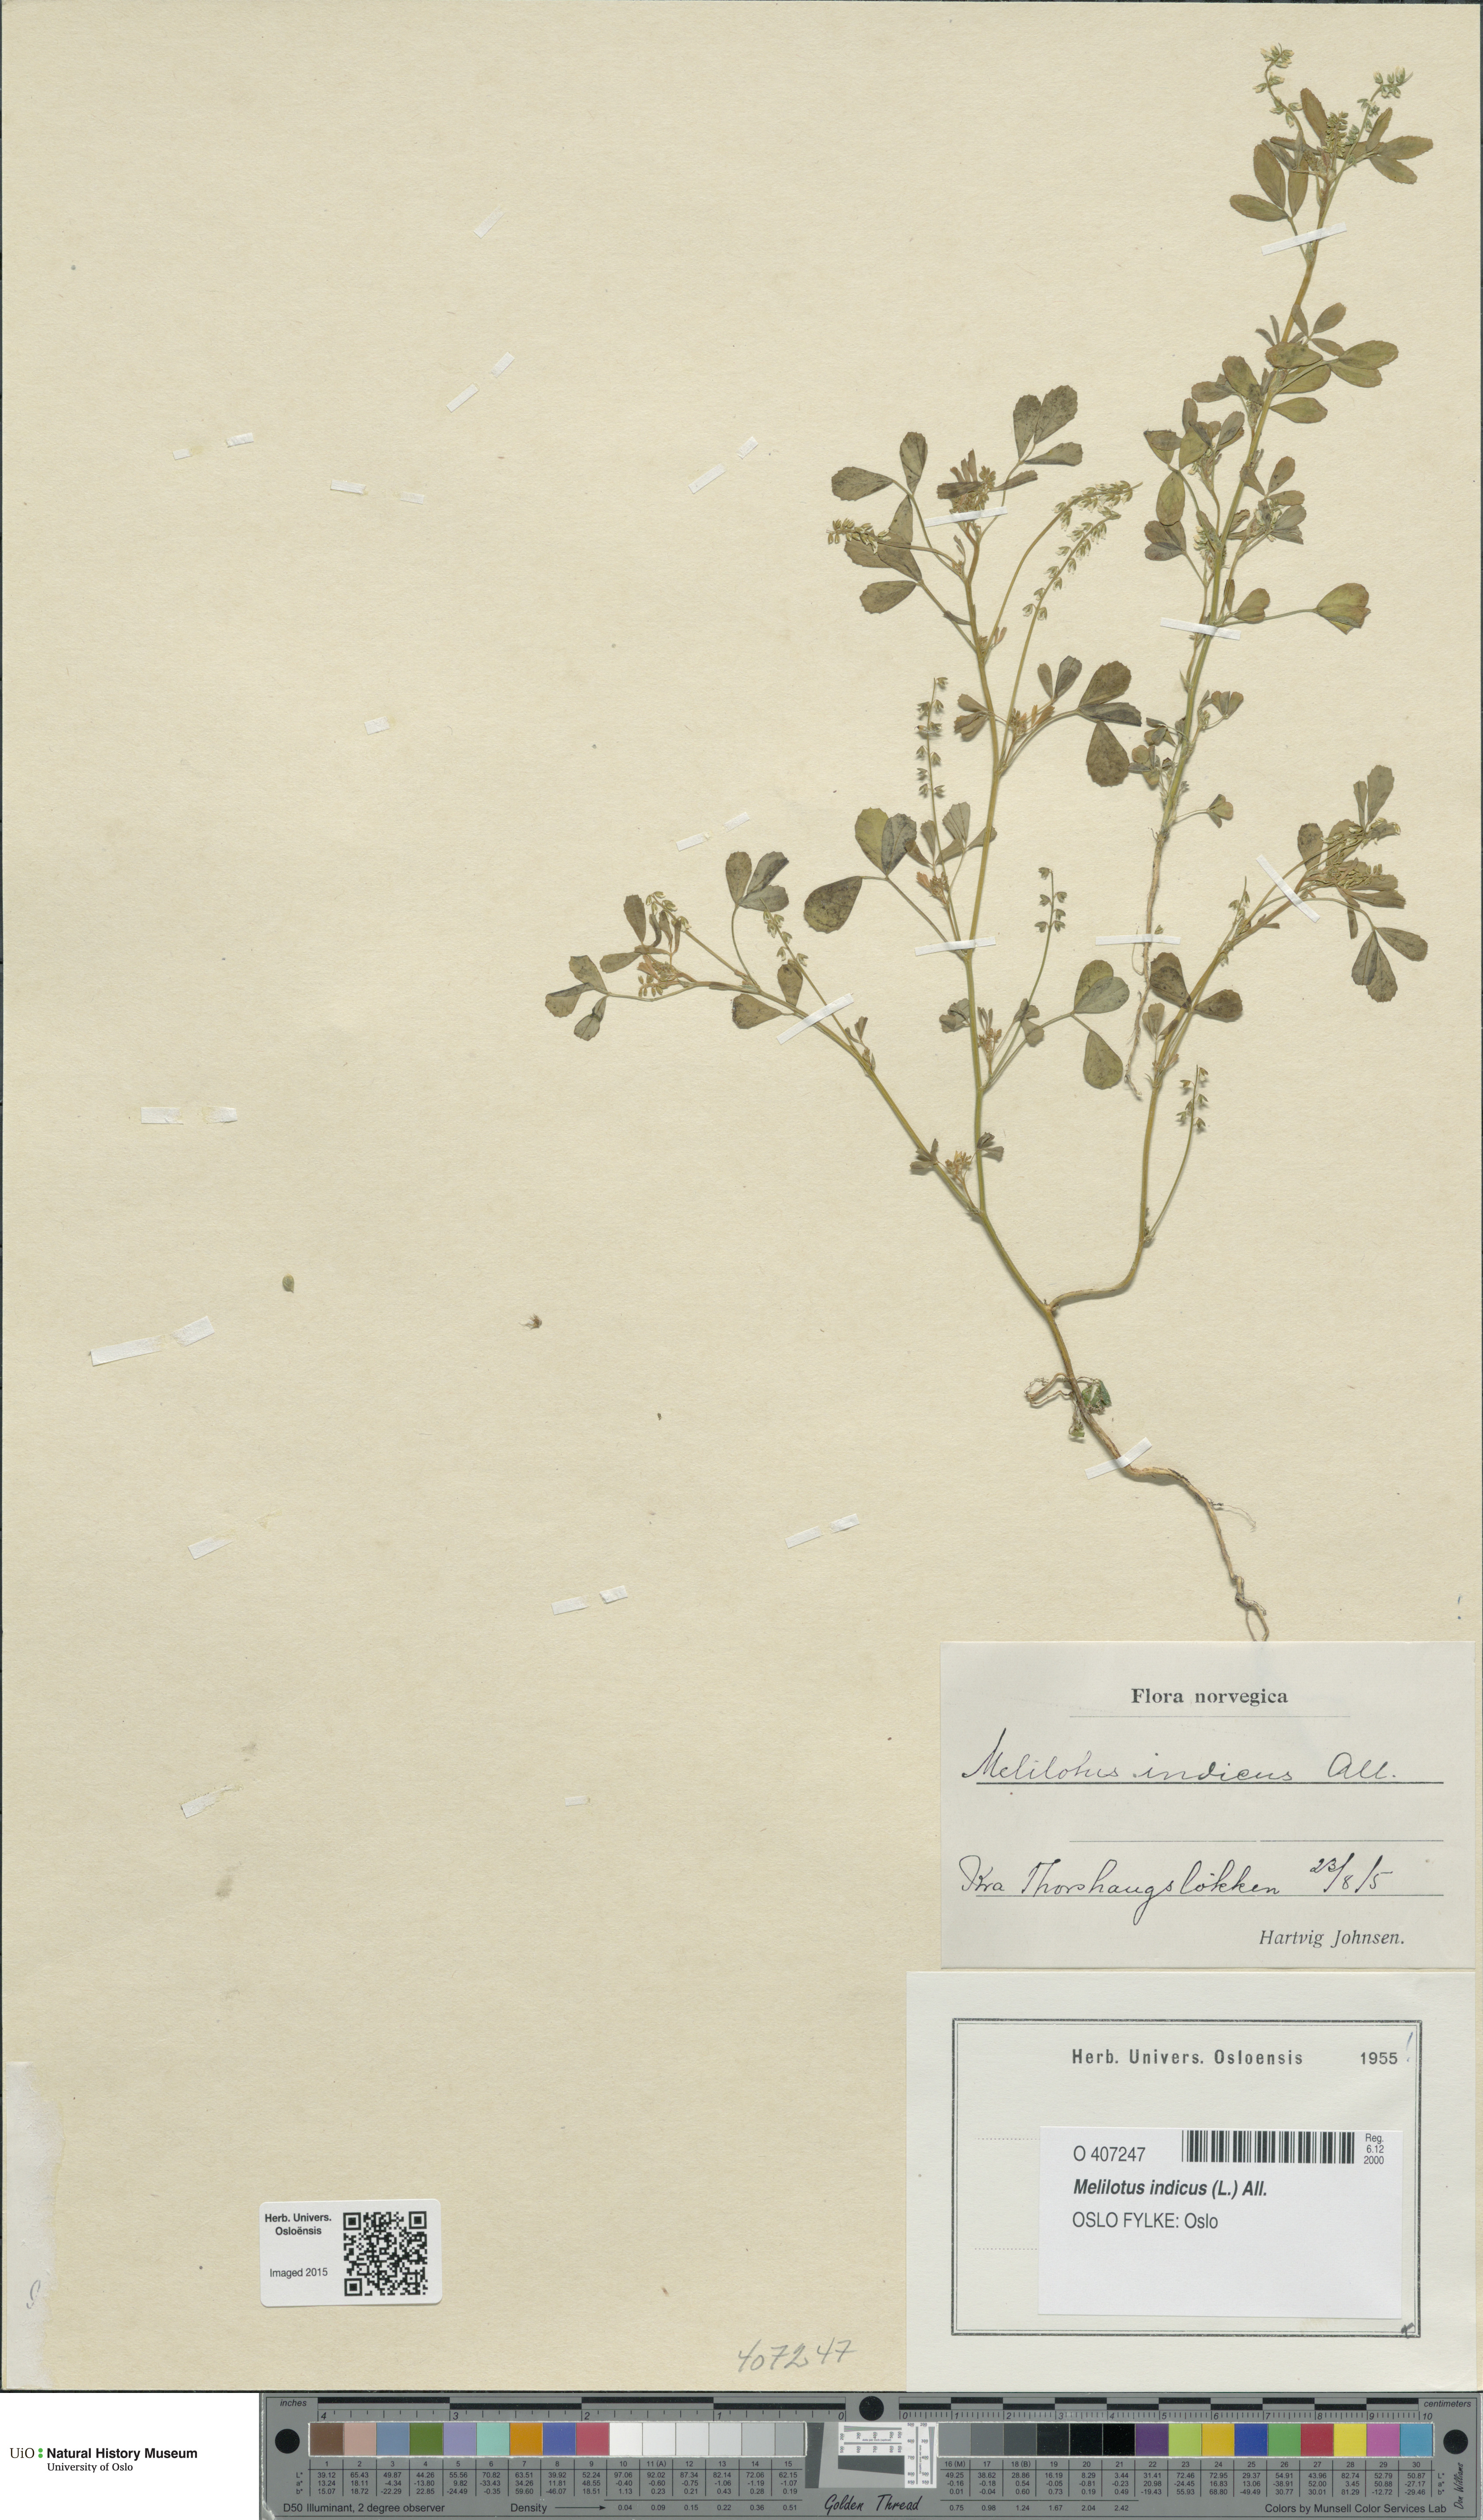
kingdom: Plantae
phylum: Tracheophyta
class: Magnoliopsida
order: Fabales
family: Fabaceae
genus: Melilotus
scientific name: Melilotus indicus
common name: Small melilot
